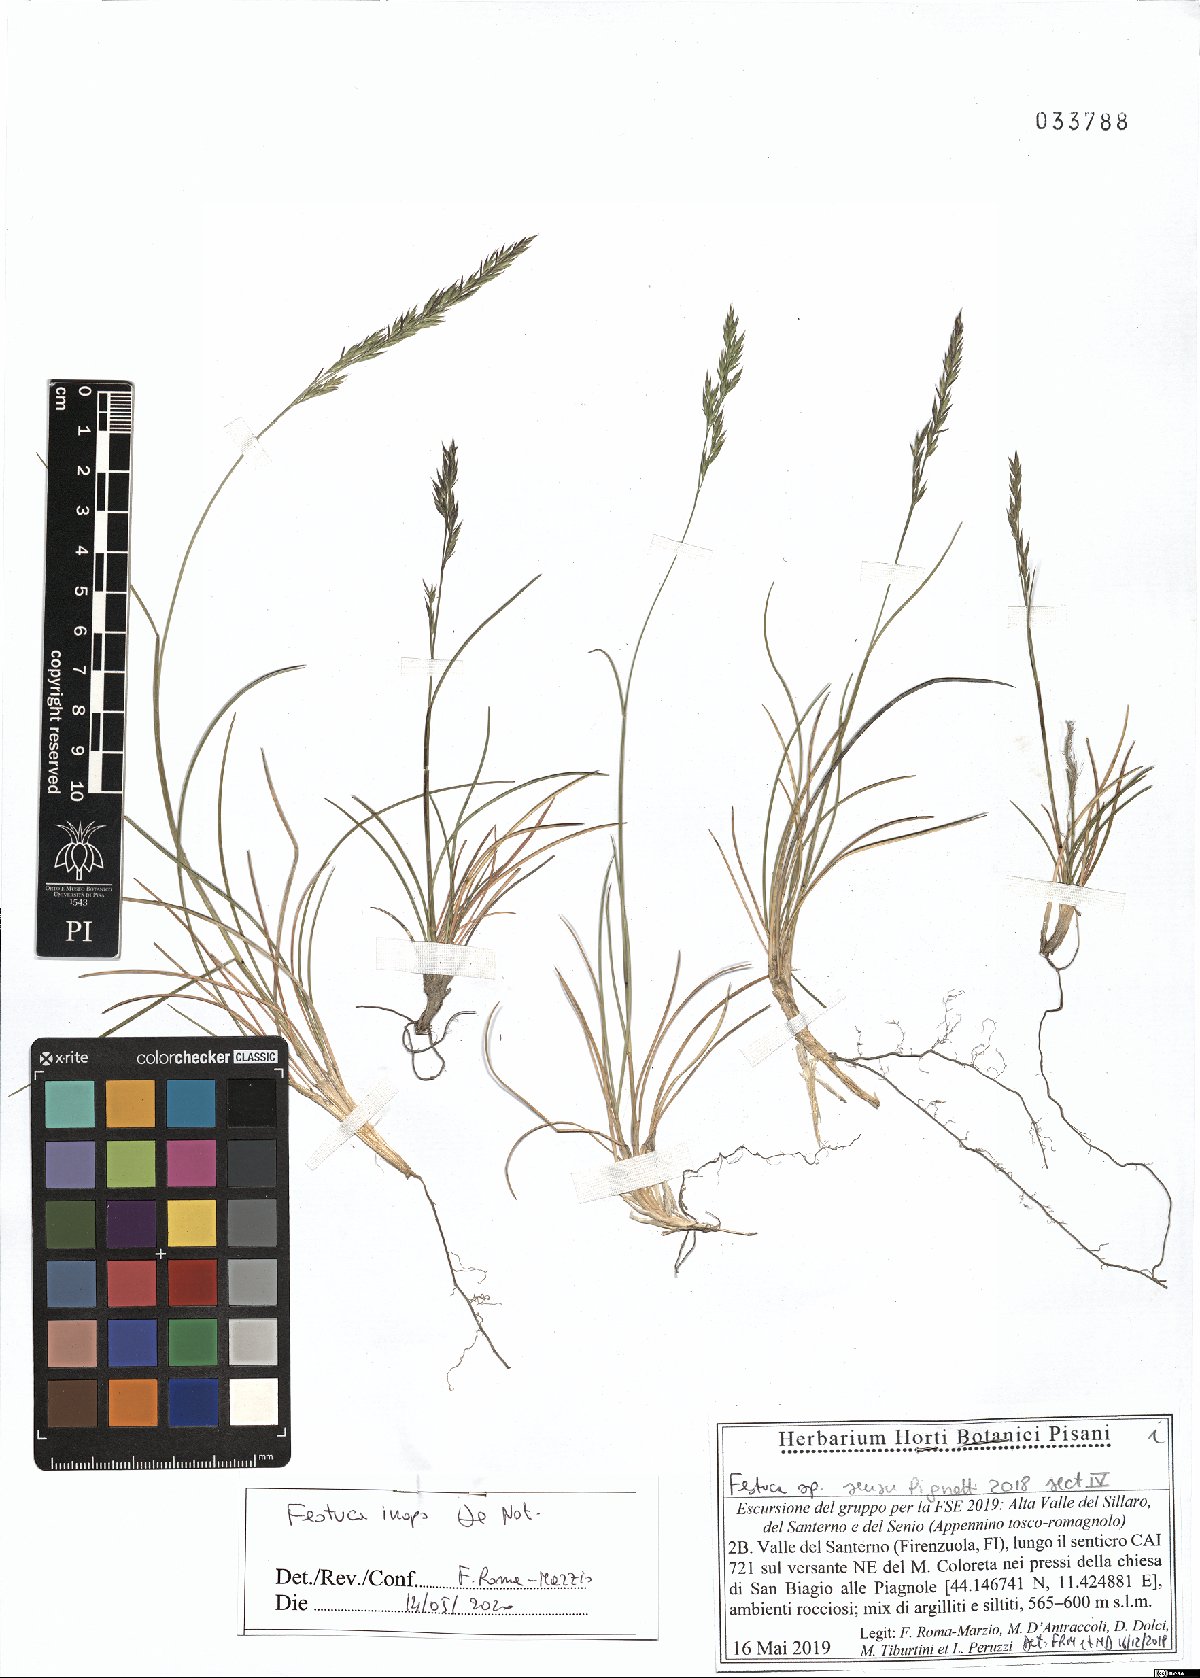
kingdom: Plantae
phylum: Tracheophyta
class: Liliopsida
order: Poales
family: Poaceae
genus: Festuca
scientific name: Festuca inops
